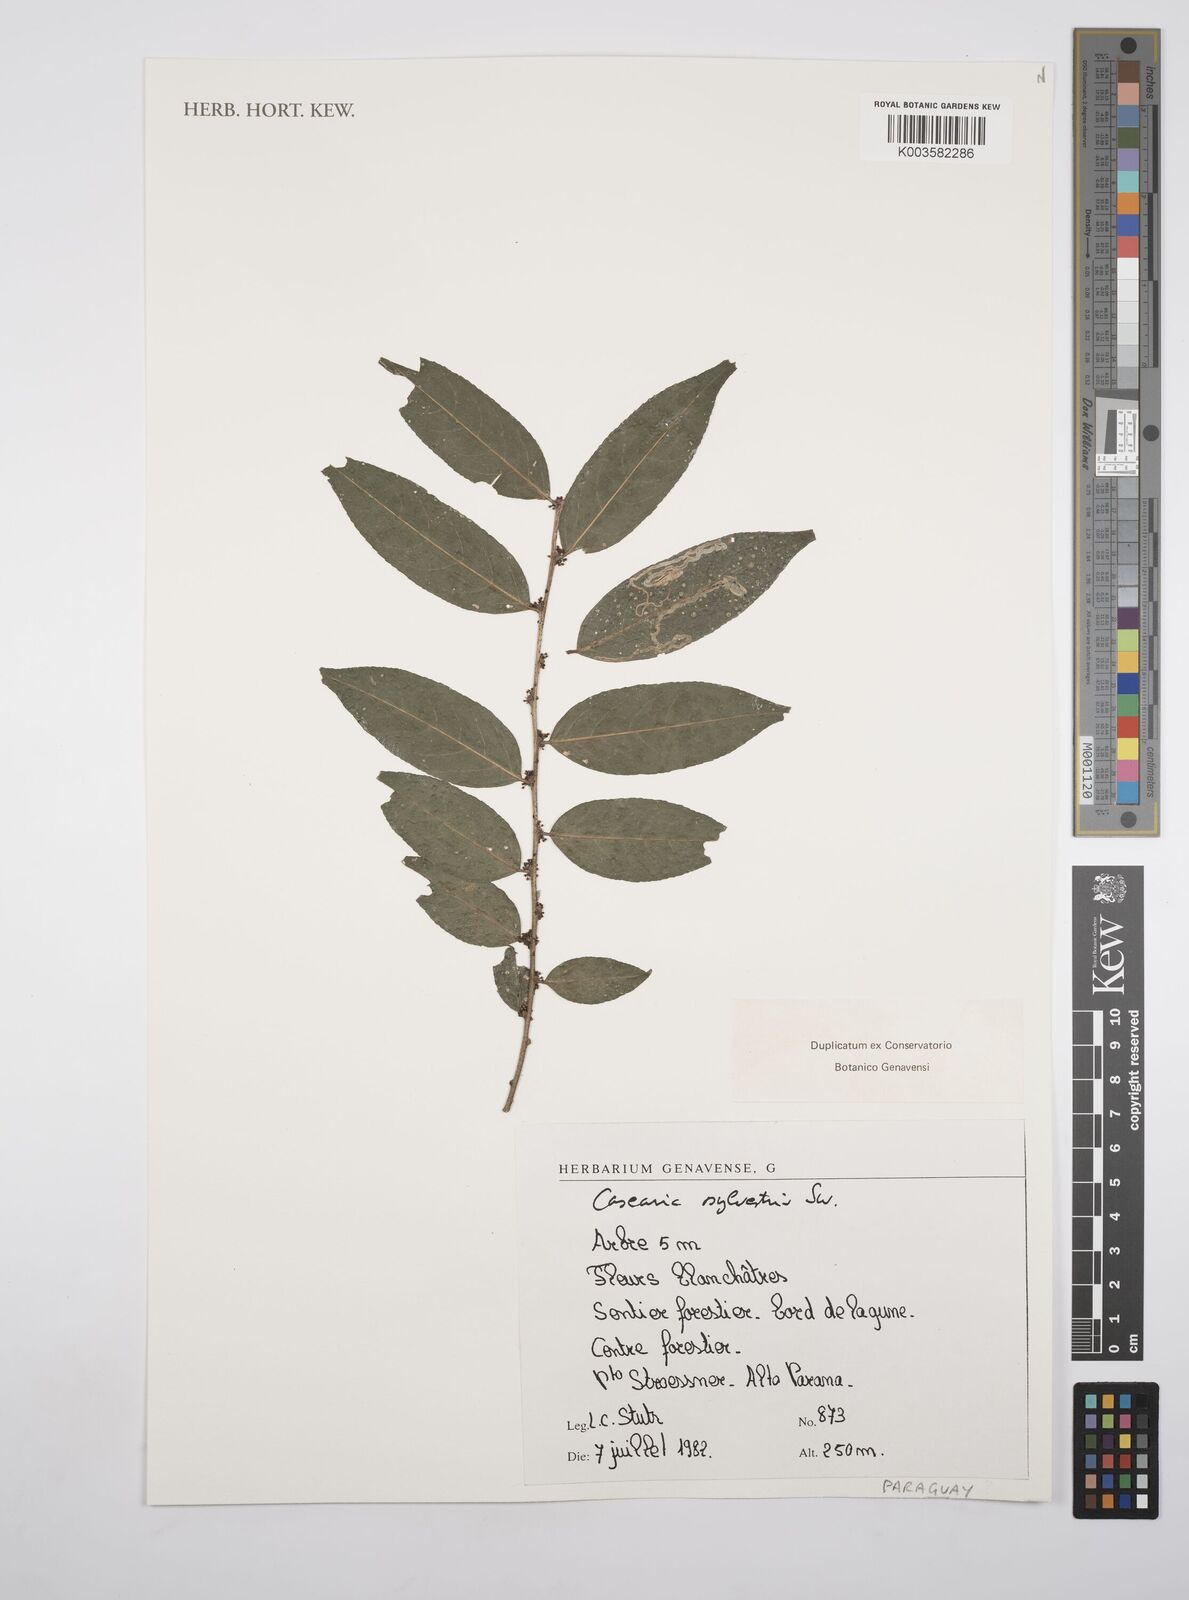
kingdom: Plantae
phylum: Tracheophyta
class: Magnoliopsida
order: Malpighiales
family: Salicaceae
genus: Casearia
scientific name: Casearia sylvestris
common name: Wild sage
